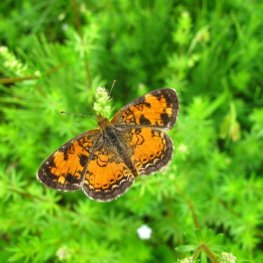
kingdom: Animalia
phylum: Arthropoda
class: Insecta
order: Lepidoptera
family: Nymphalidae
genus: Phyciodes
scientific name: Phyciodes tharos
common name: Northern Crescent
